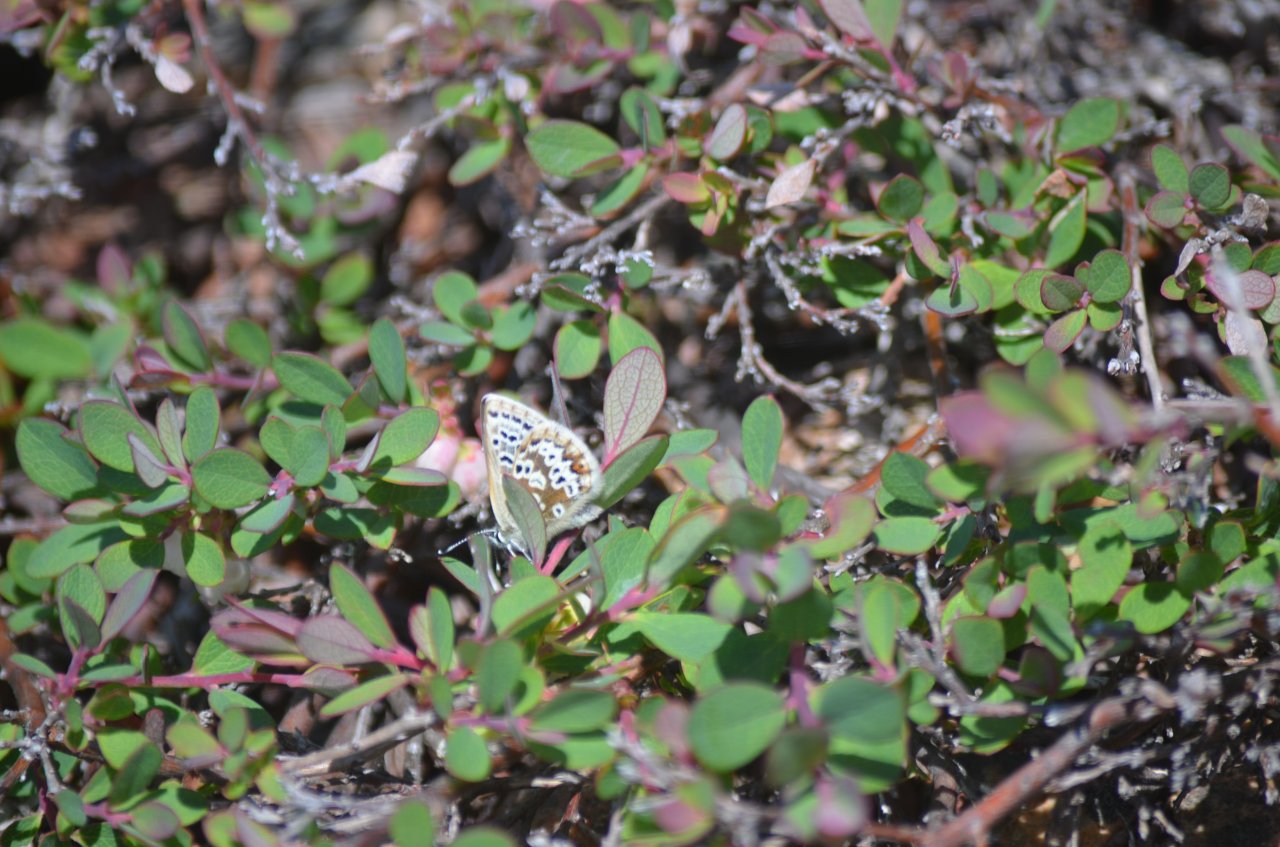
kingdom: Animalia
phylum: Arthropoda
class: Insecta
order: Lepidoptera
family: Lycaenidae
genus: Agriades
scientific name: Agriades glandon
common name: Arctic Blue
